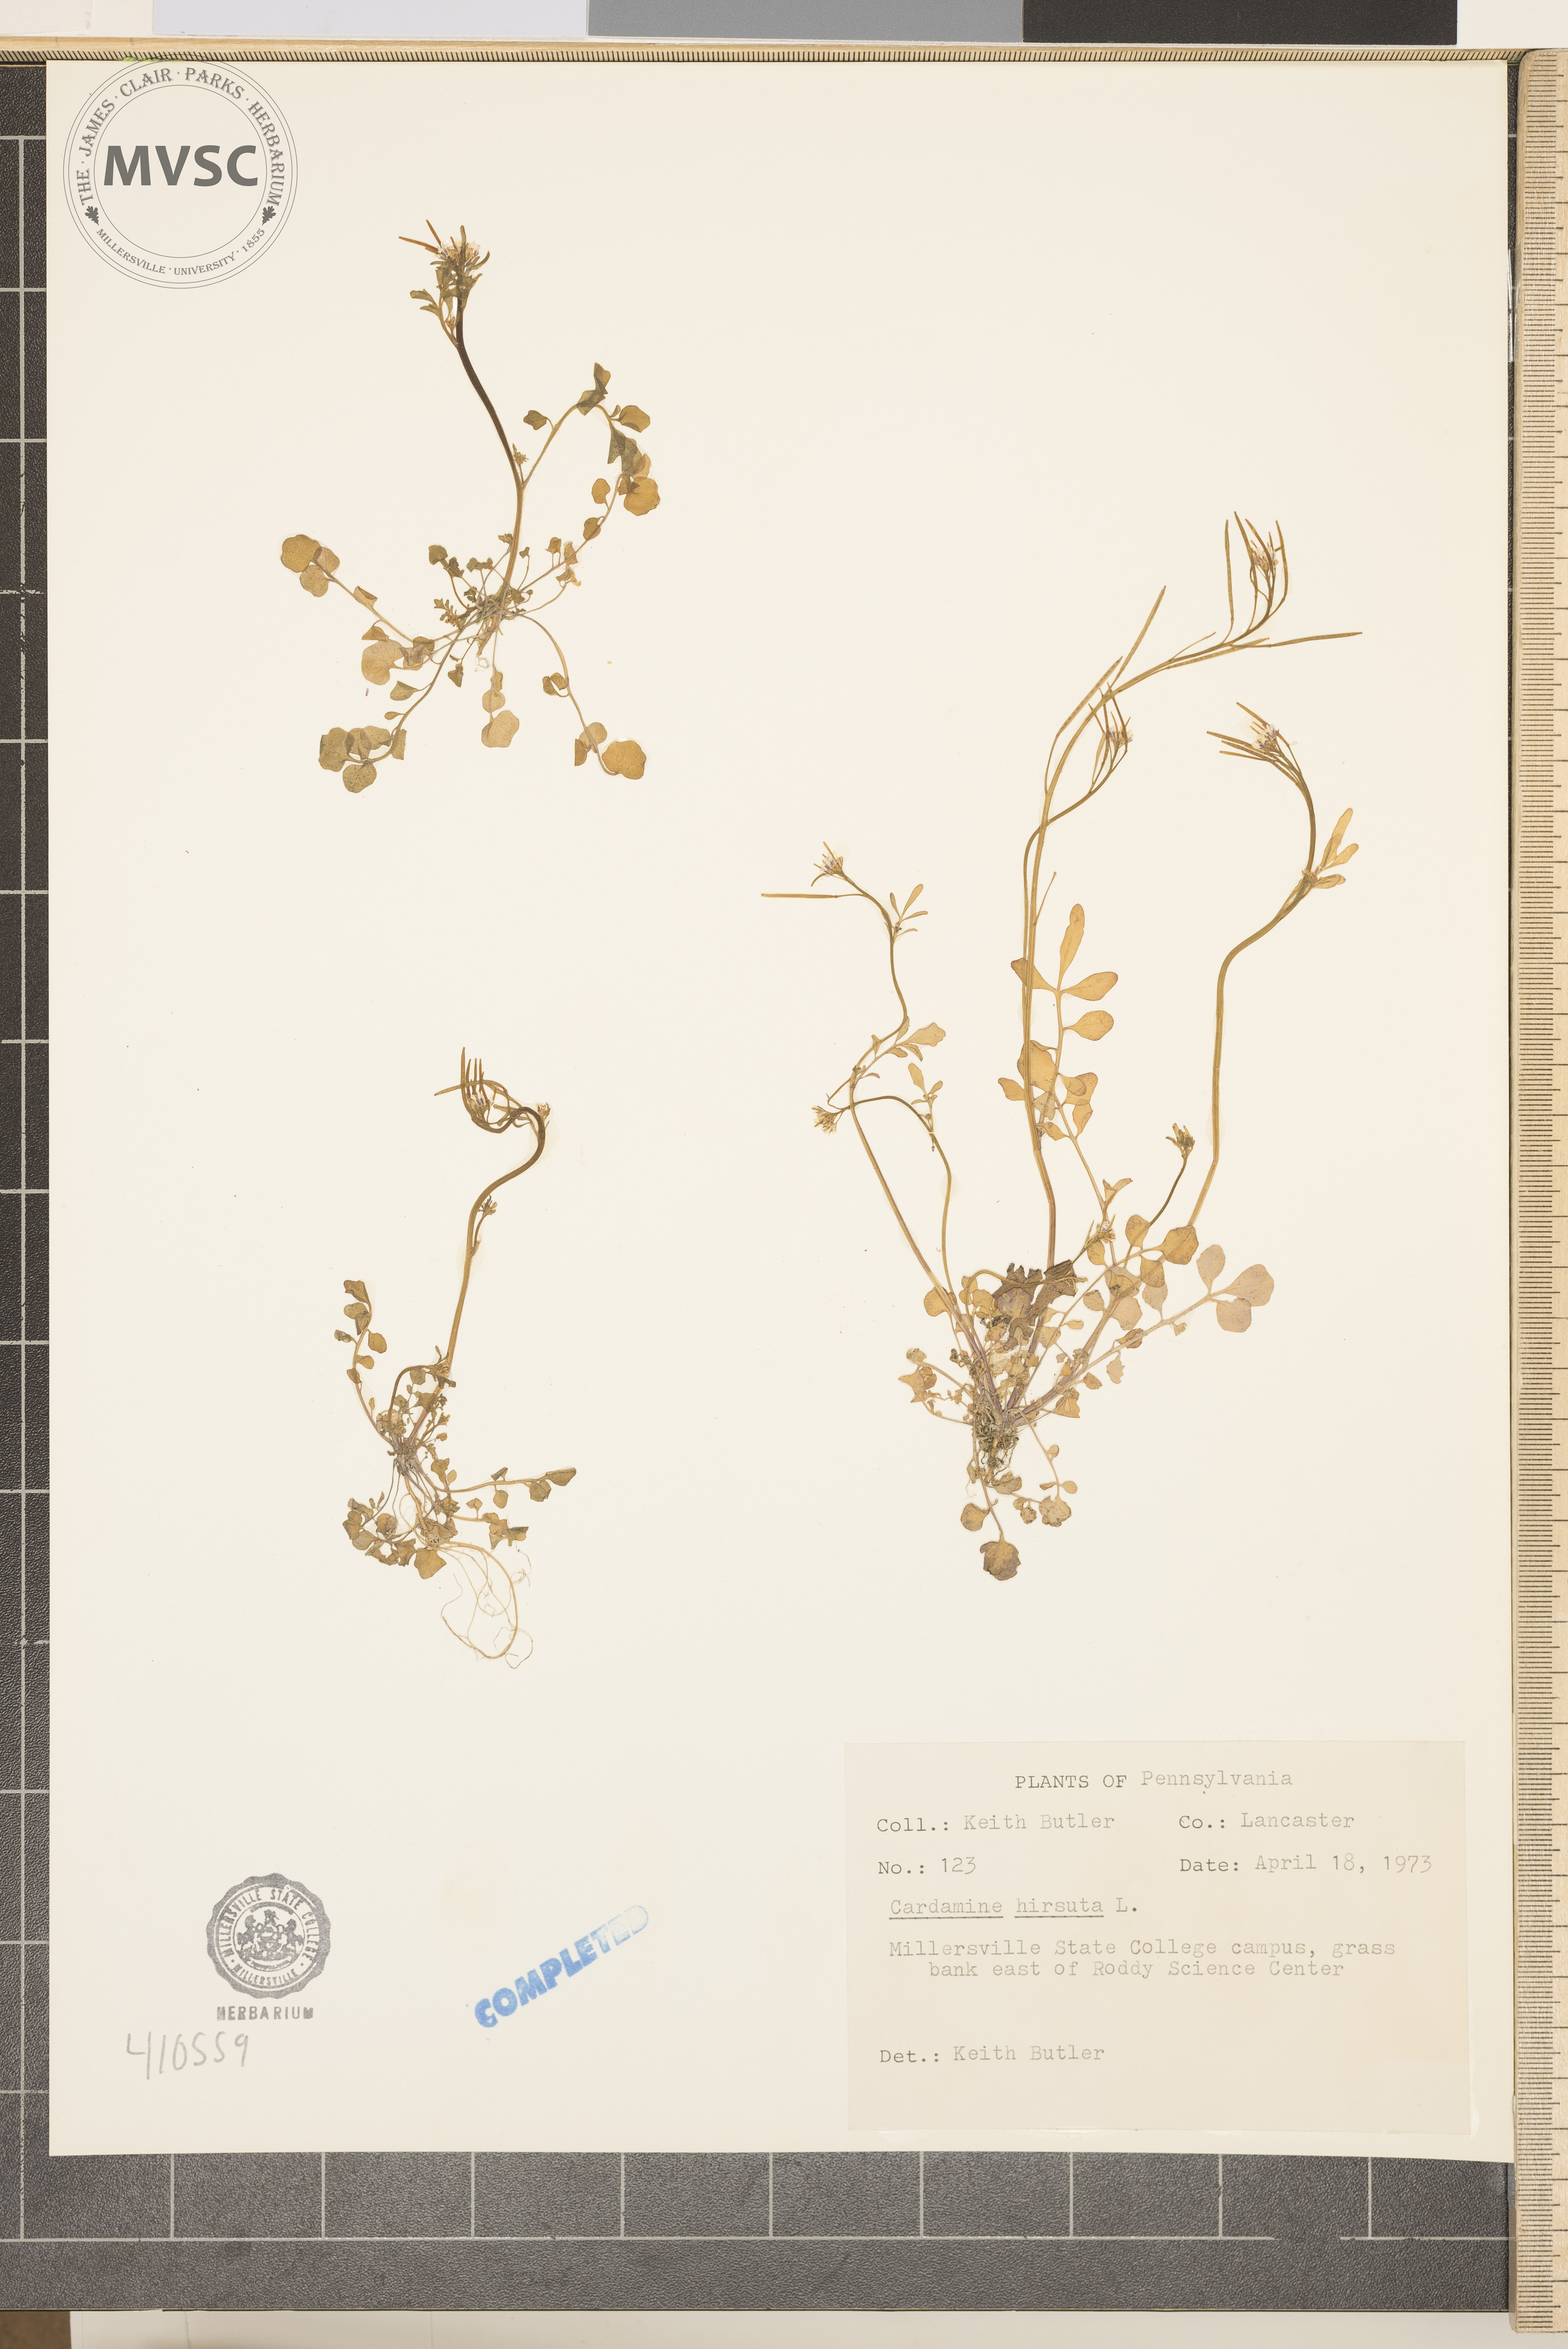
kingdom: Plantae
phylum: Tracheophyta
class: Magnoliopsida
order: Brassicales
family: Brassicaceae
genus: Cardamine
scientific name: Cardamine hirsuta
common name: Hairy bittercress
